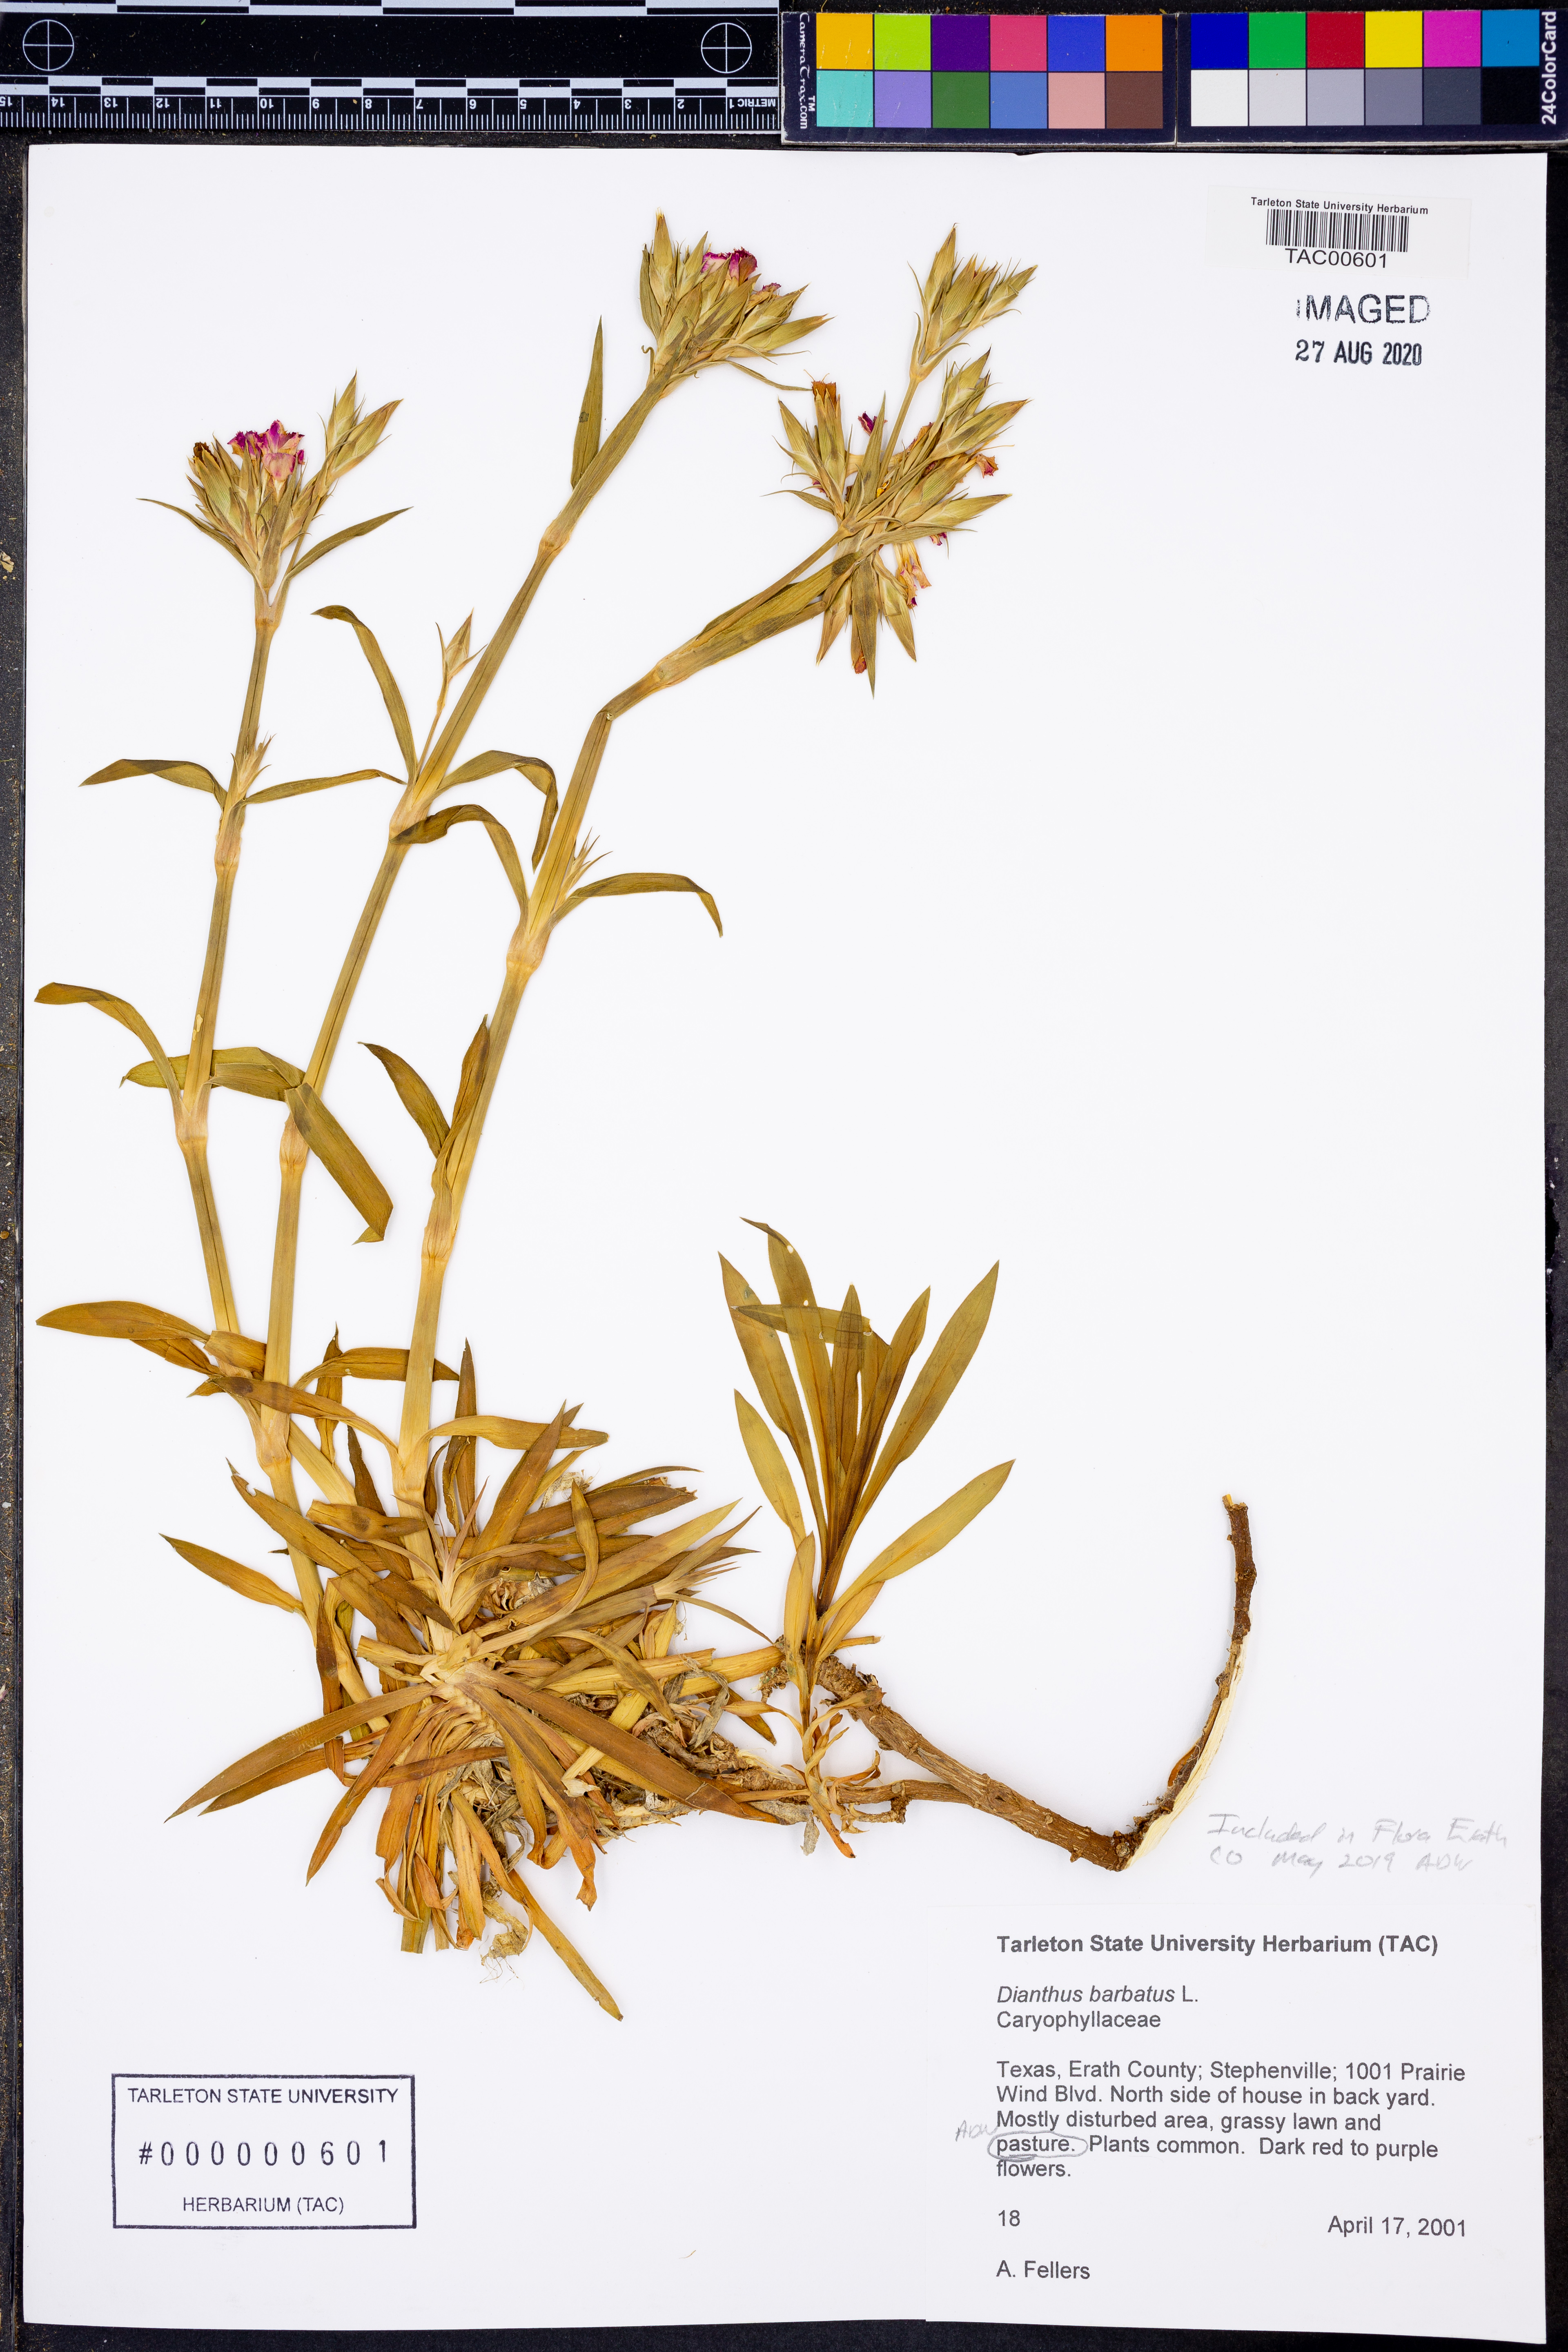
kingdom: Plantae
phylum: Tracheophyta
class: Magnoliopsida
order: Caryophyllales
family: Caryophyllaceae
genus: Dianthus
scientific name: Dianthus barbatus
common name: Sweet-william
